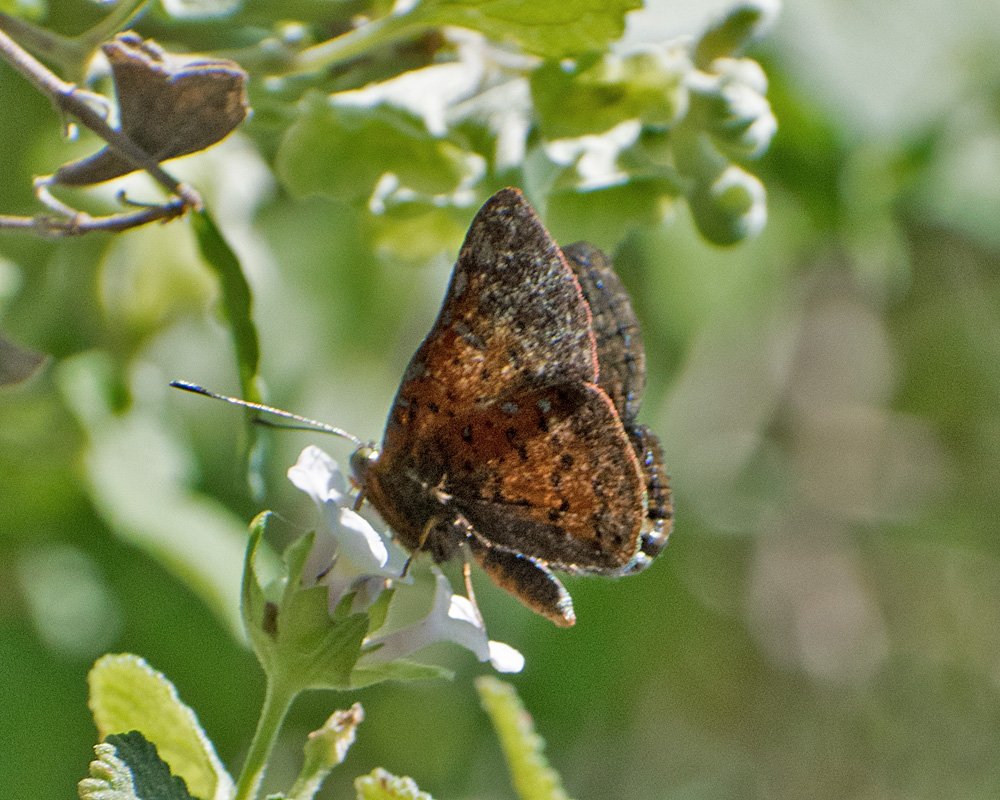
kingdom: Animalia
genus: Caria
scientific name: Caria ino
